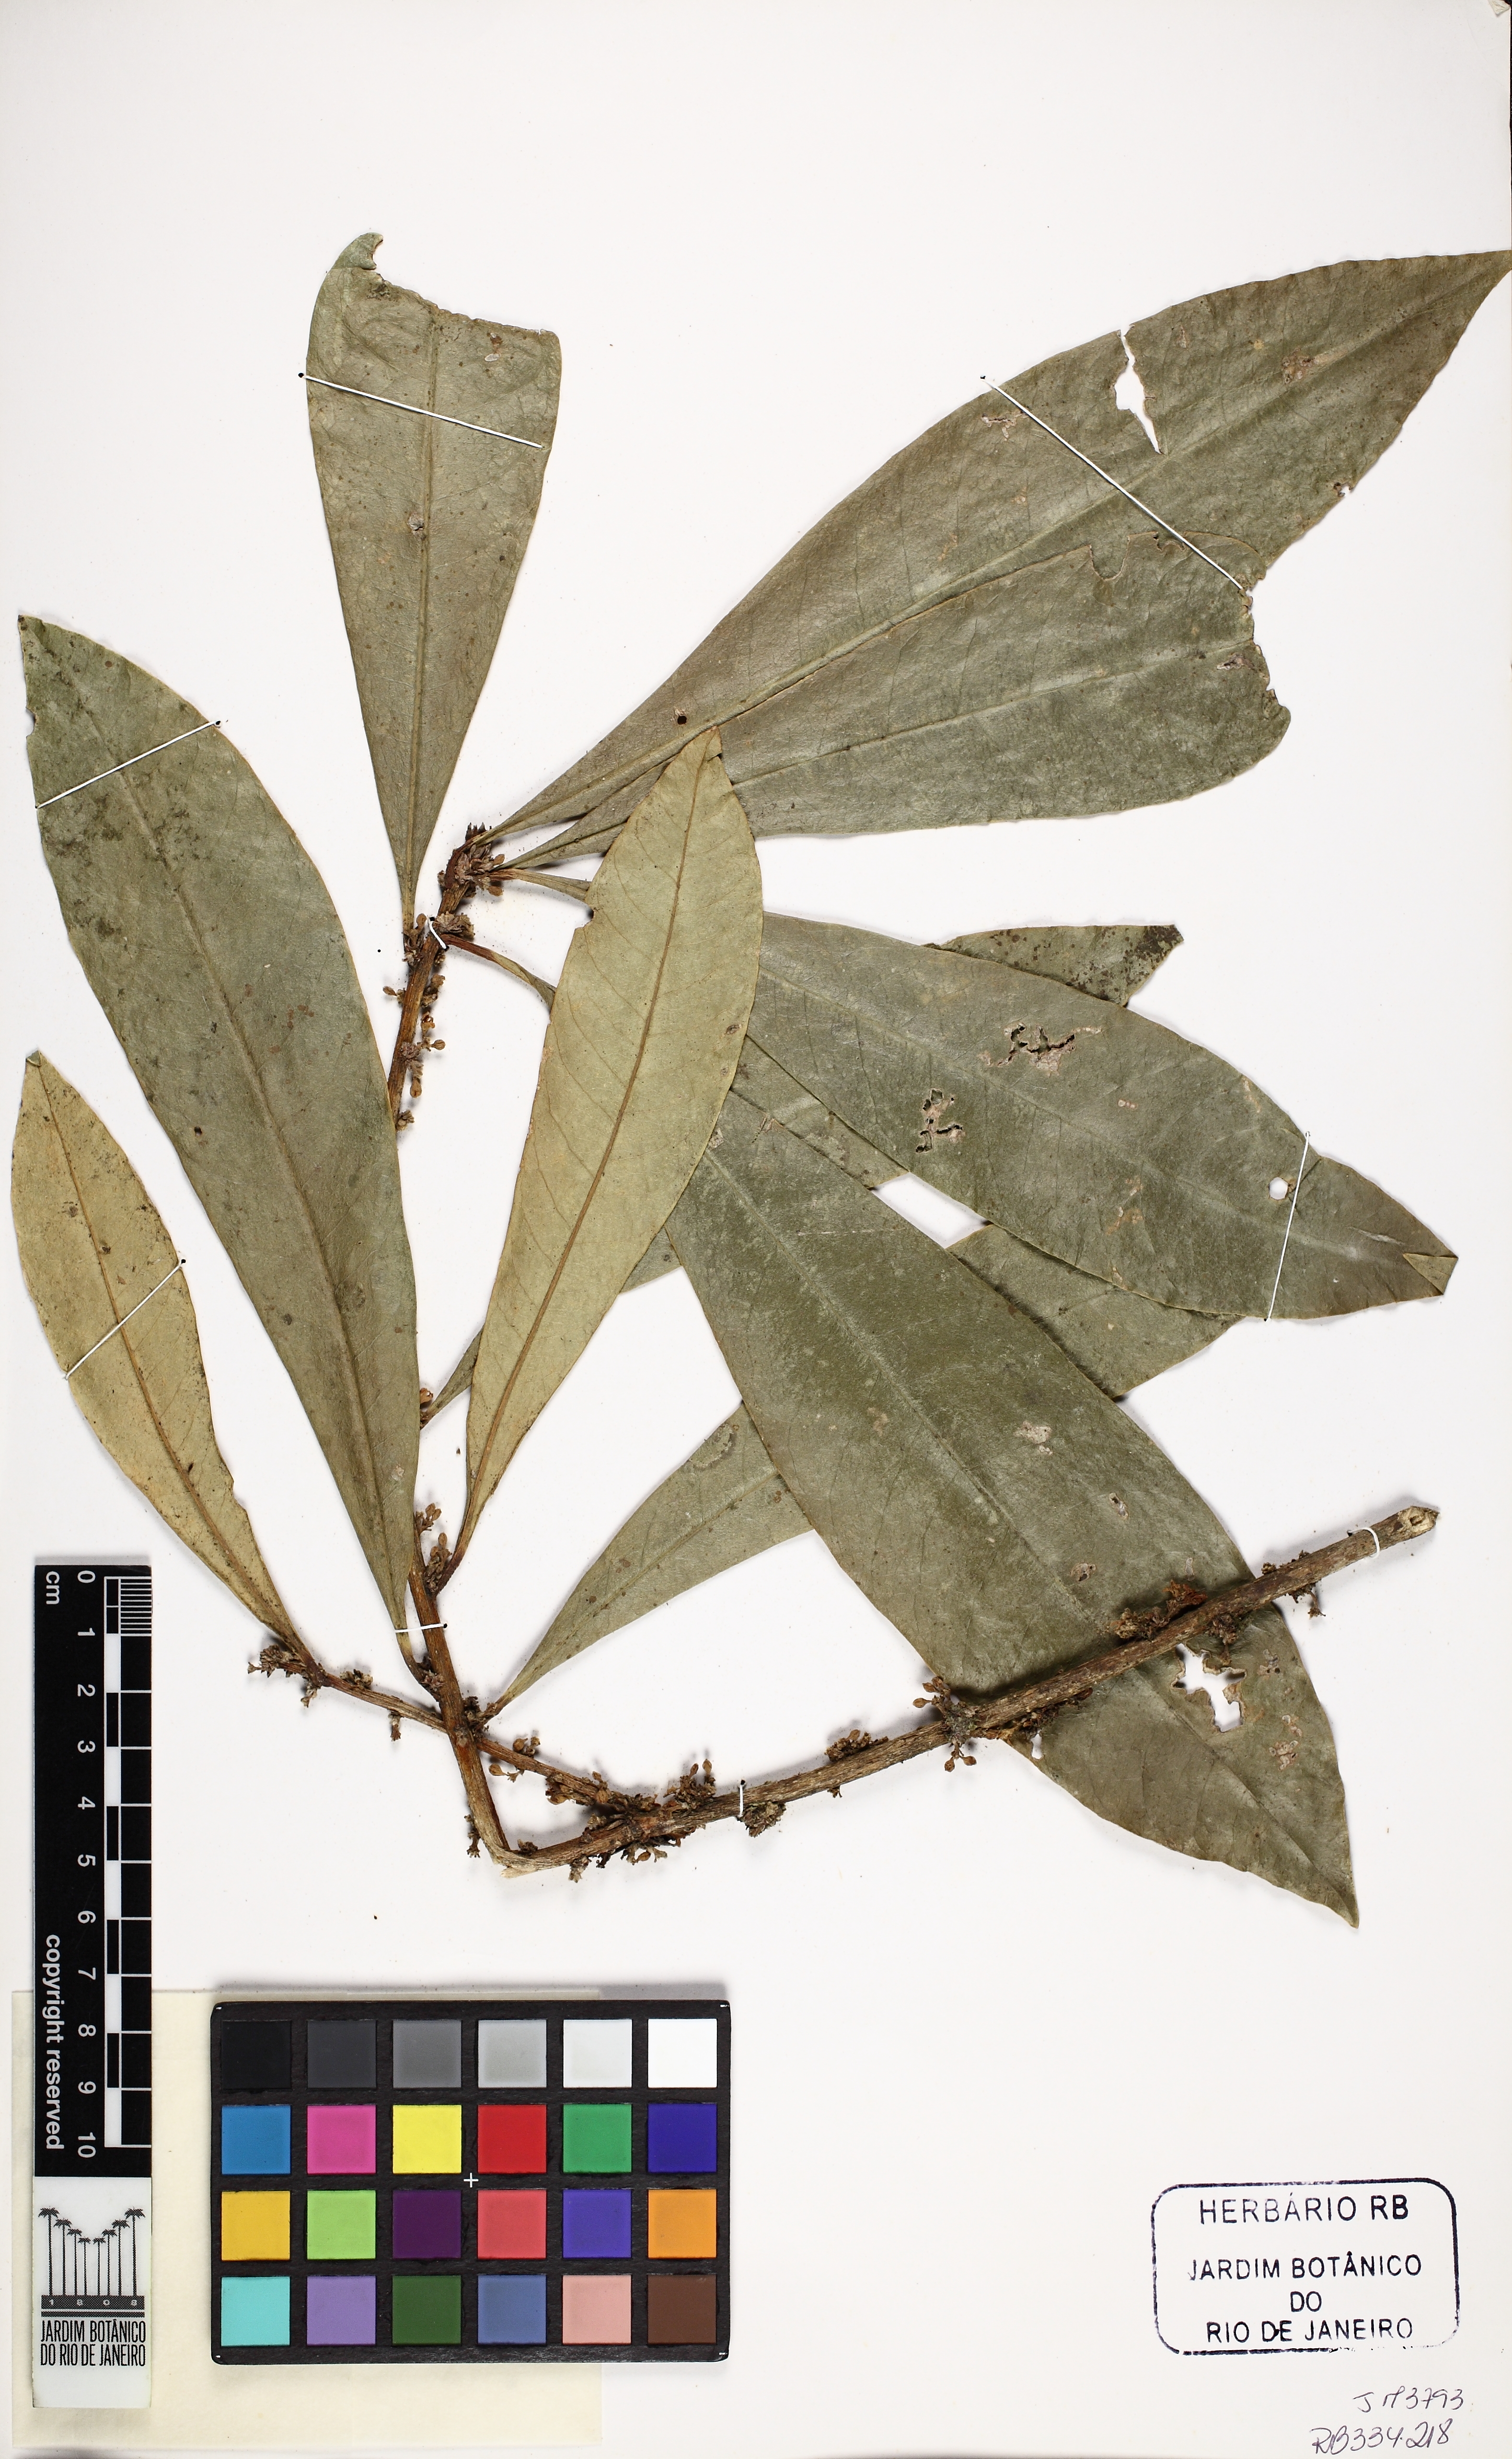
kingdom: Plantae
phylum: Tracheophyta
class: Magnoliopsida
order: Malvales
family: Thymelaeaceae
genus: Daphnopsis
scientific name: Daphnopsis fasciculata
